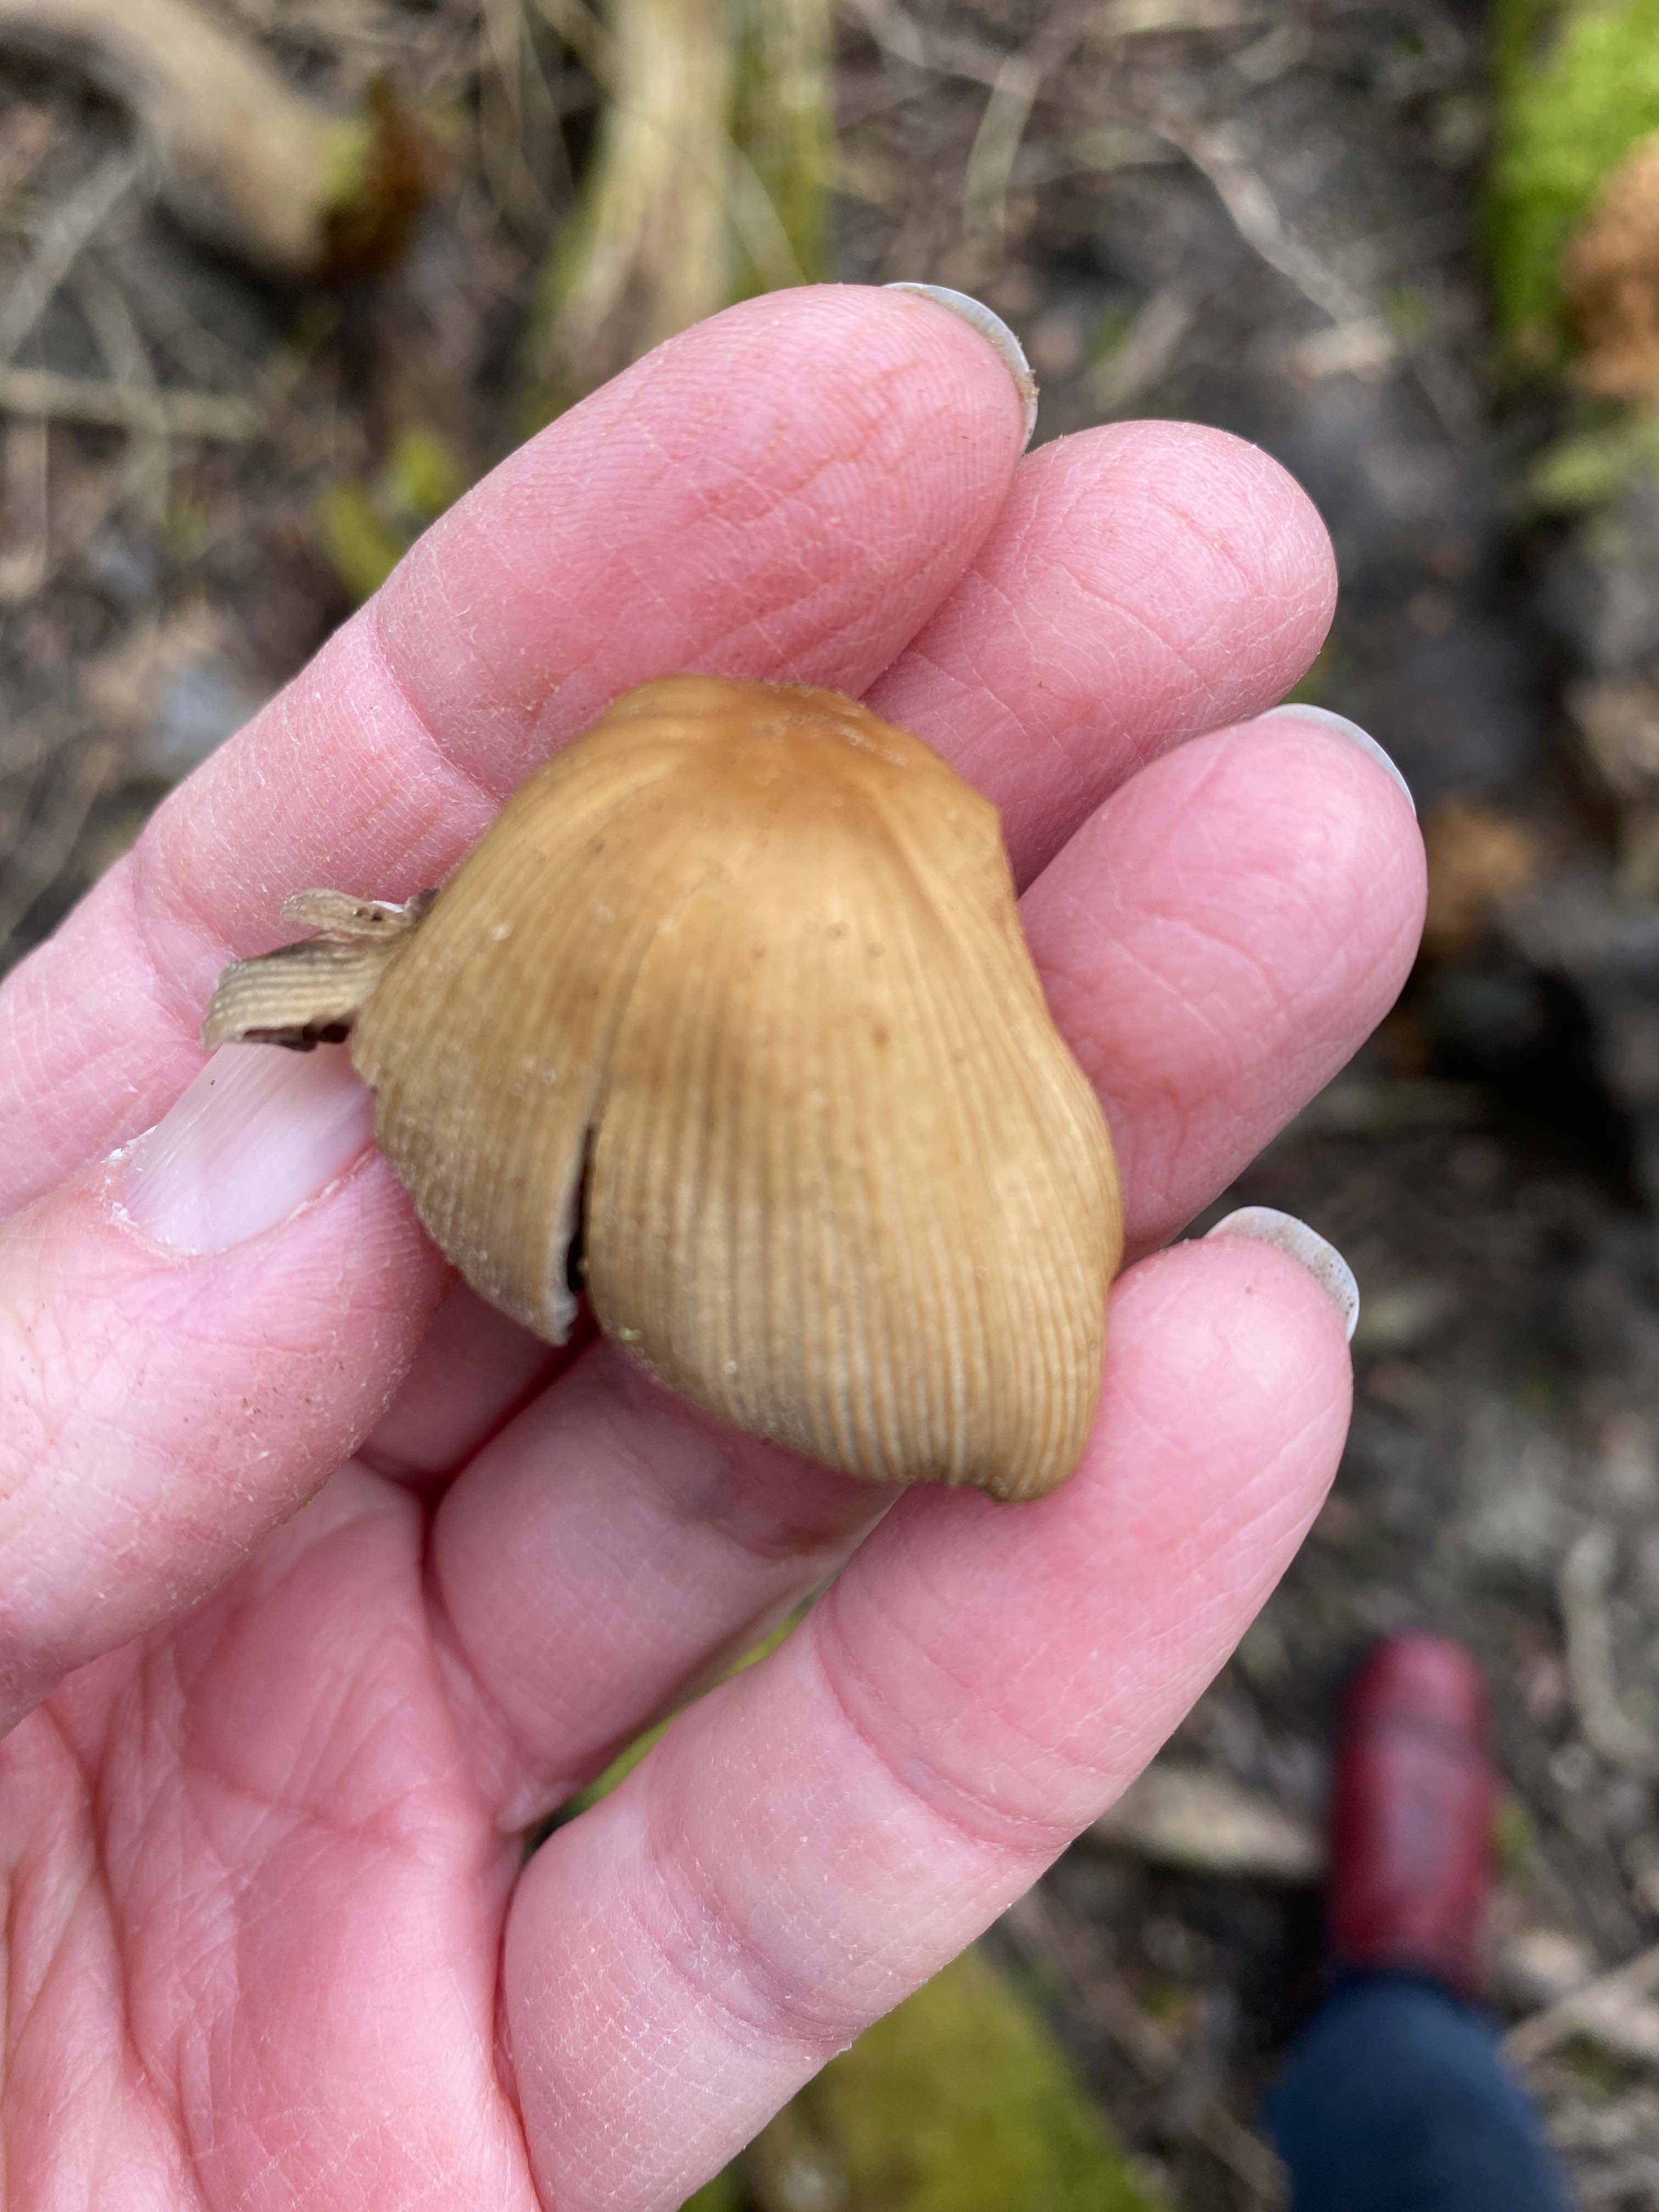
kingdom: Fungi
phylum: Basidiomycota
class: Agaricomycetes
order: Agaricales
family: Psathyrellaceae
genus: Coprinellus
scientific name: Coprinellus micaceus
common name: glimmer-blækhat
